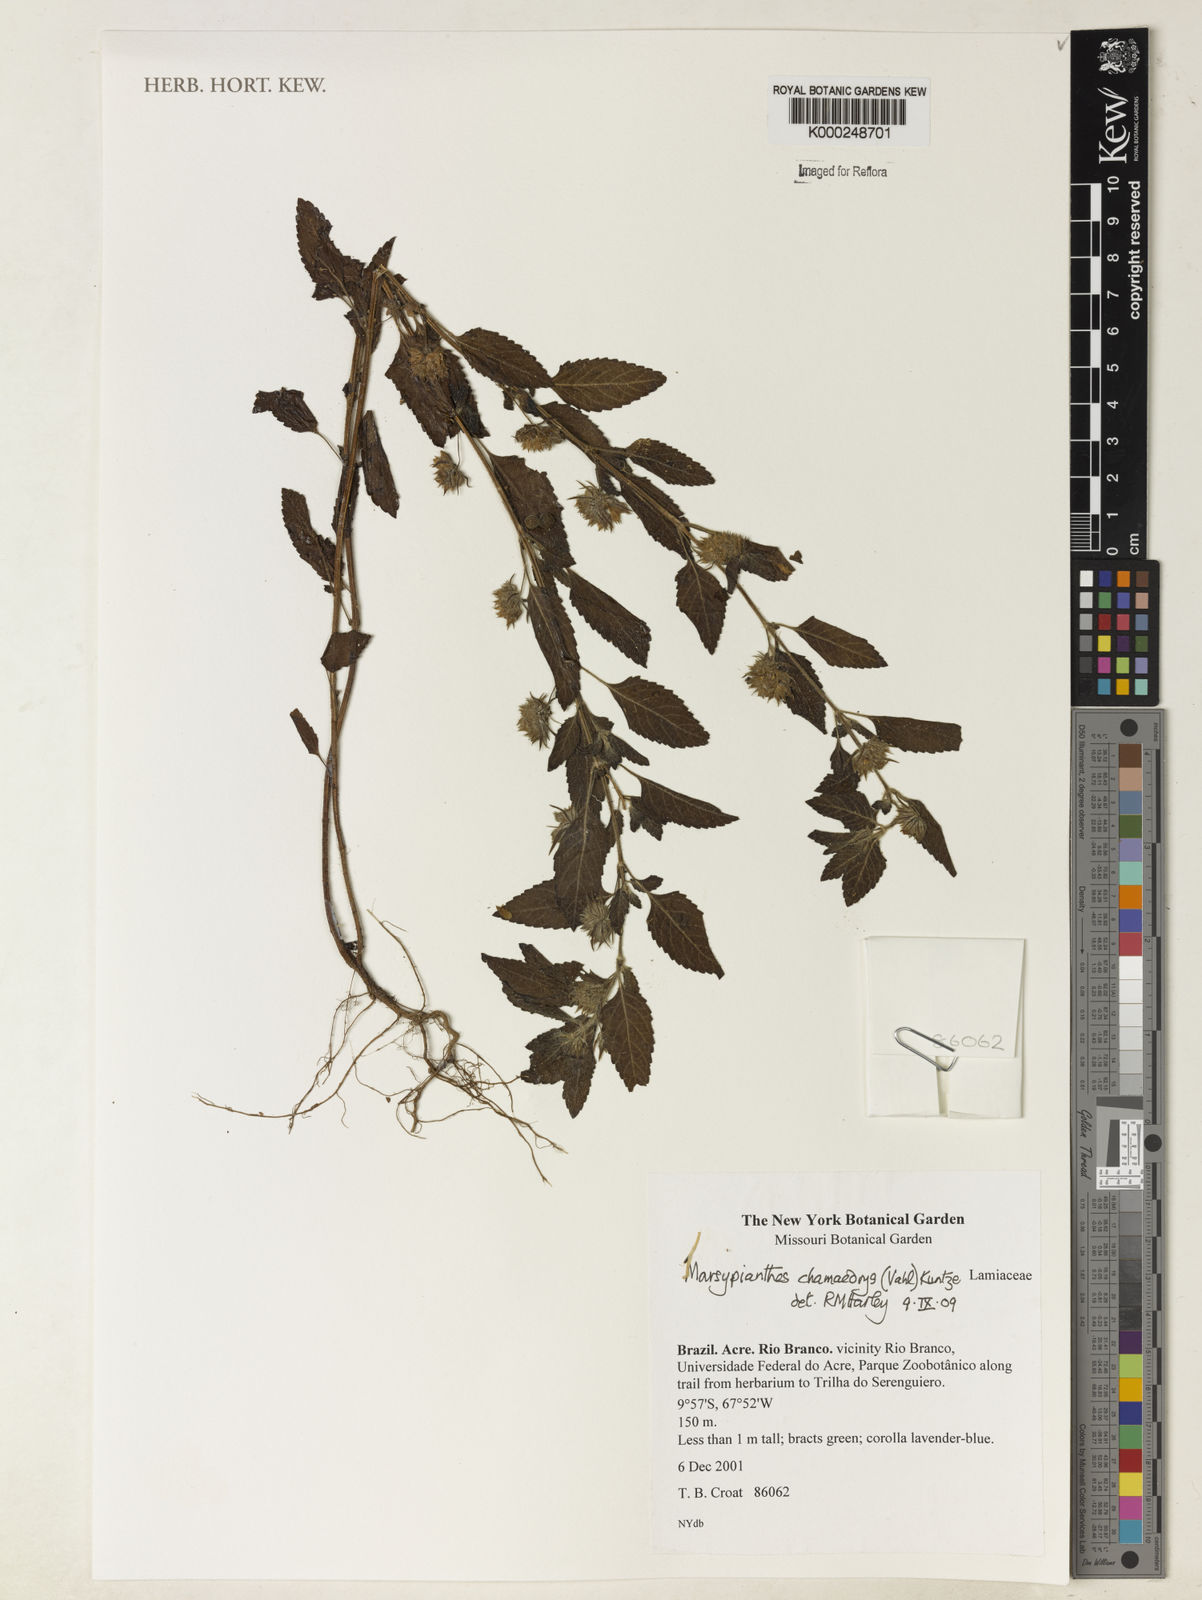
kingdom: Plantae
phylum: Tracheophyta
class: Magnoliopsida
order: Lamiales
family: Lamiaceae
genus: Marsypianthes
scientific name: Marsypianthes chamaedrys
